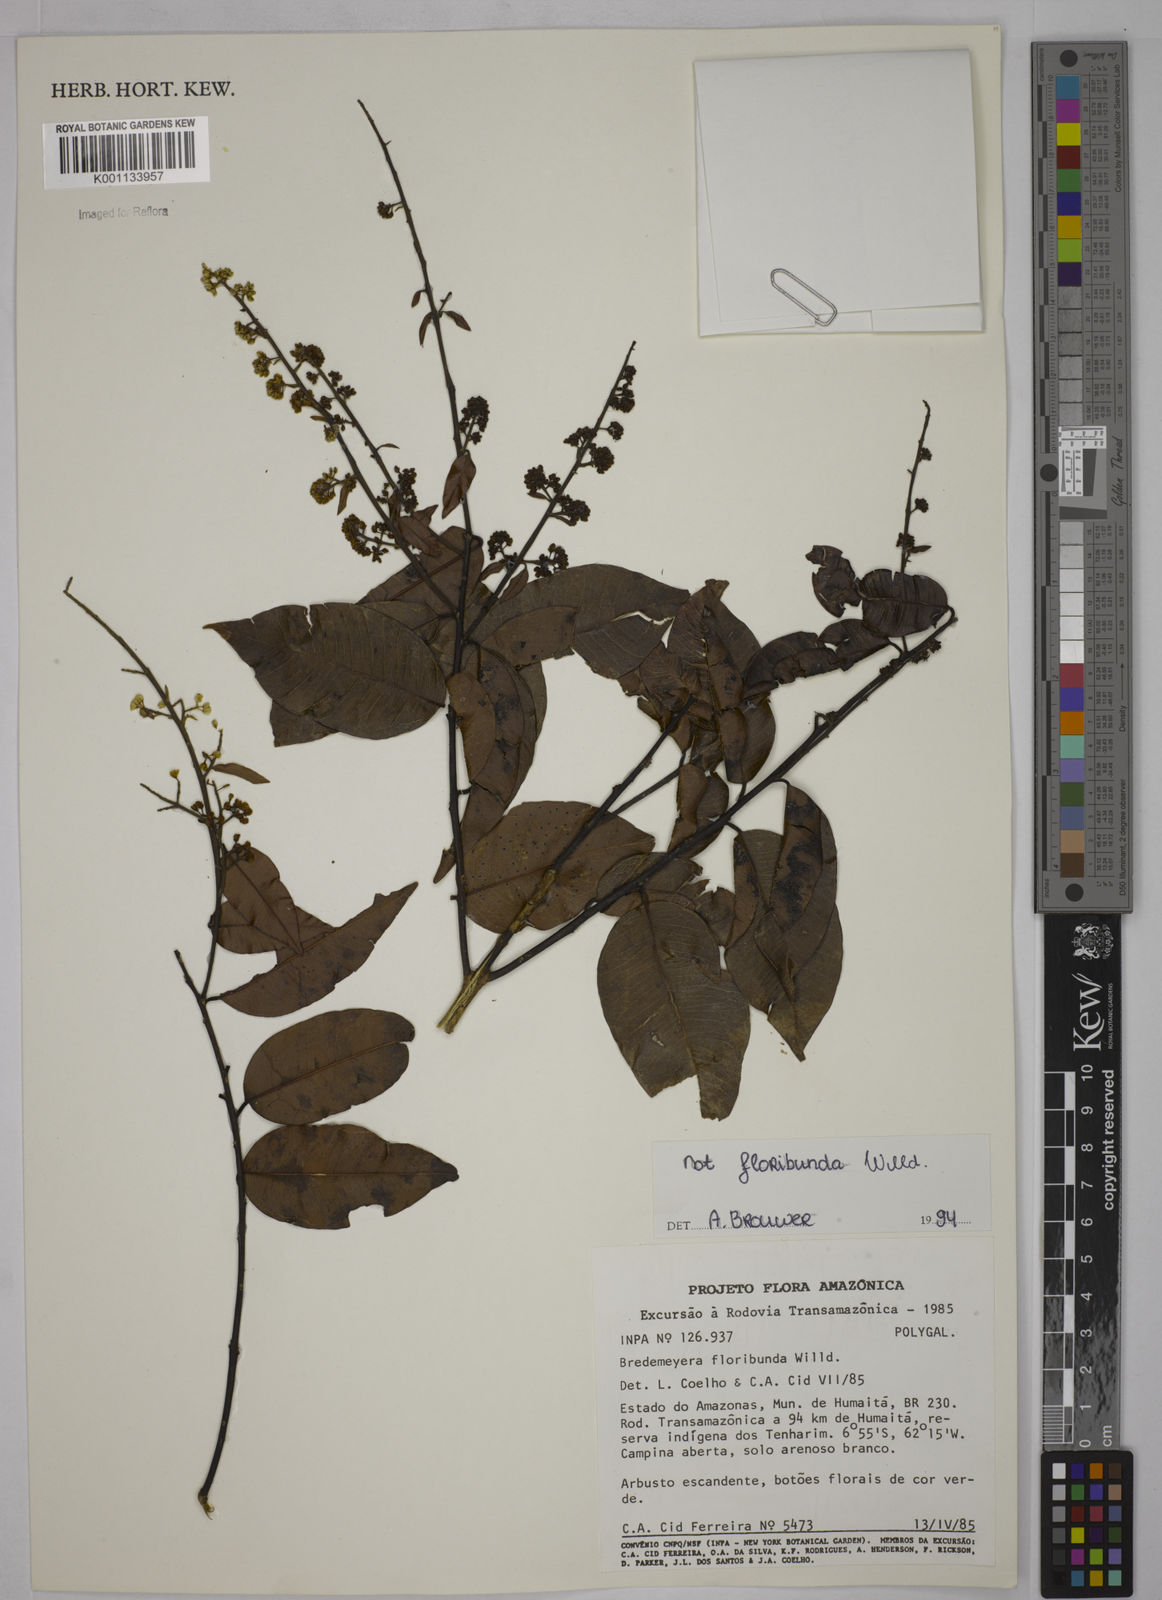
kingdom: Plantae
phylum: Tracheophyta
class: Magnoliopsida
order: Fabales
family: Polygalaceae
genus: Bredemeyera
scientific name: Bredemeyera
